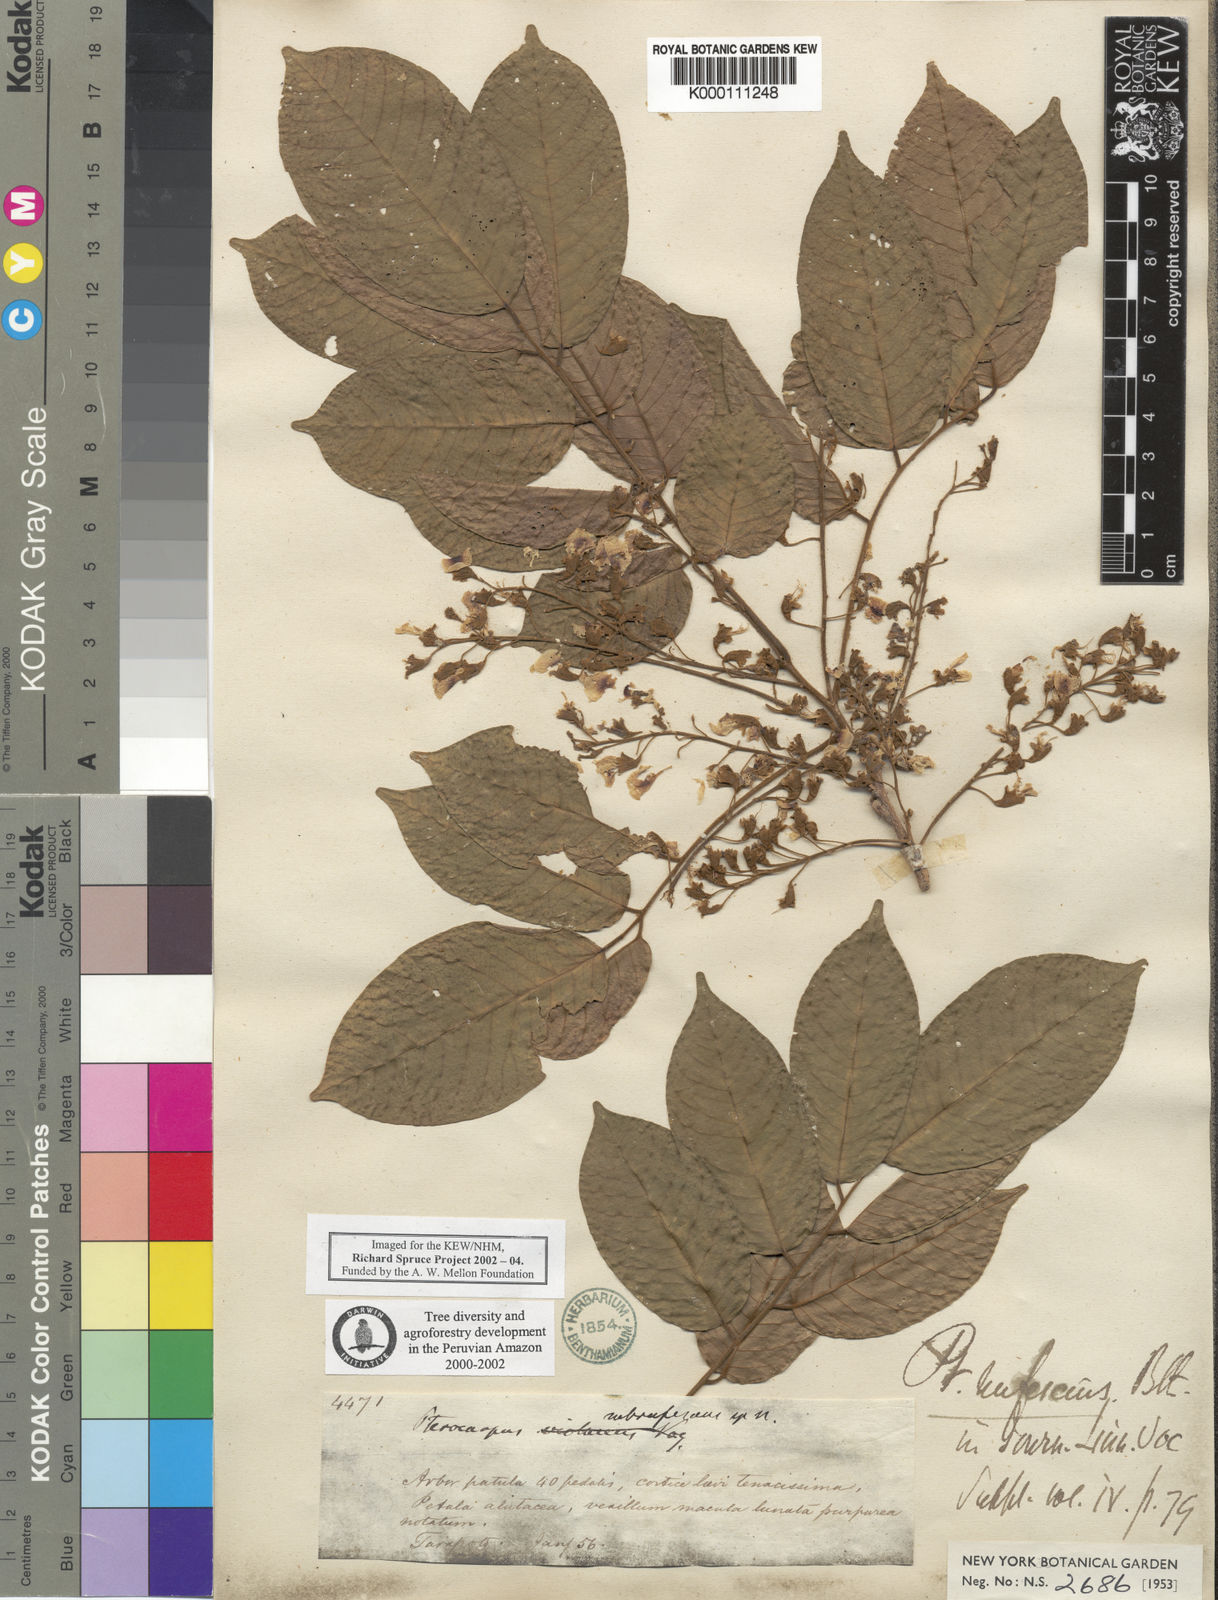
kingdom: Plantae
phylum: Tracheophyta
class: Magnoliopsida
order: Fabales
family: Fabaceae
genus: Pterocarpus
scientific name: Pterocarpus rohrii
